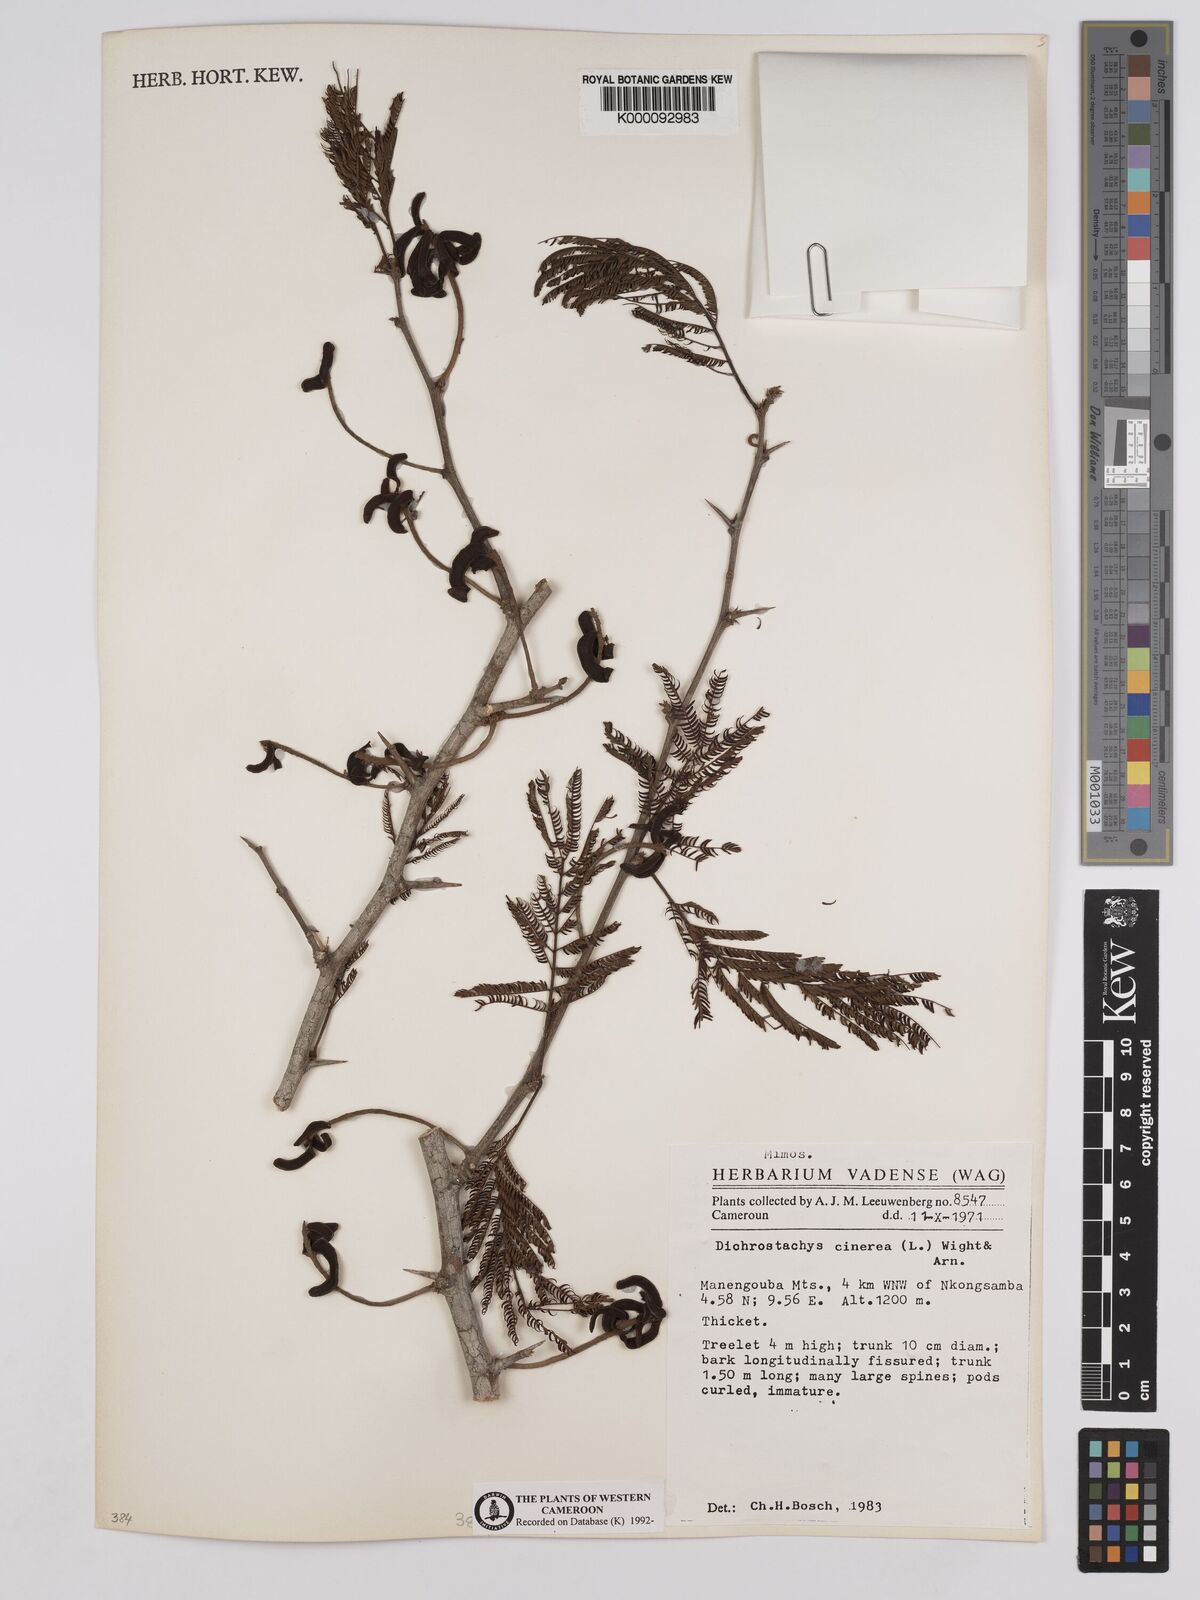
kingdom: Plantae
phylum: Tracheophyta
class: Magnoliopsida
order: Fabales
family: Fabaceae
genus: Dichrostachys
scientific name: Dichrostachys cinerea
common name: Sicklebush
